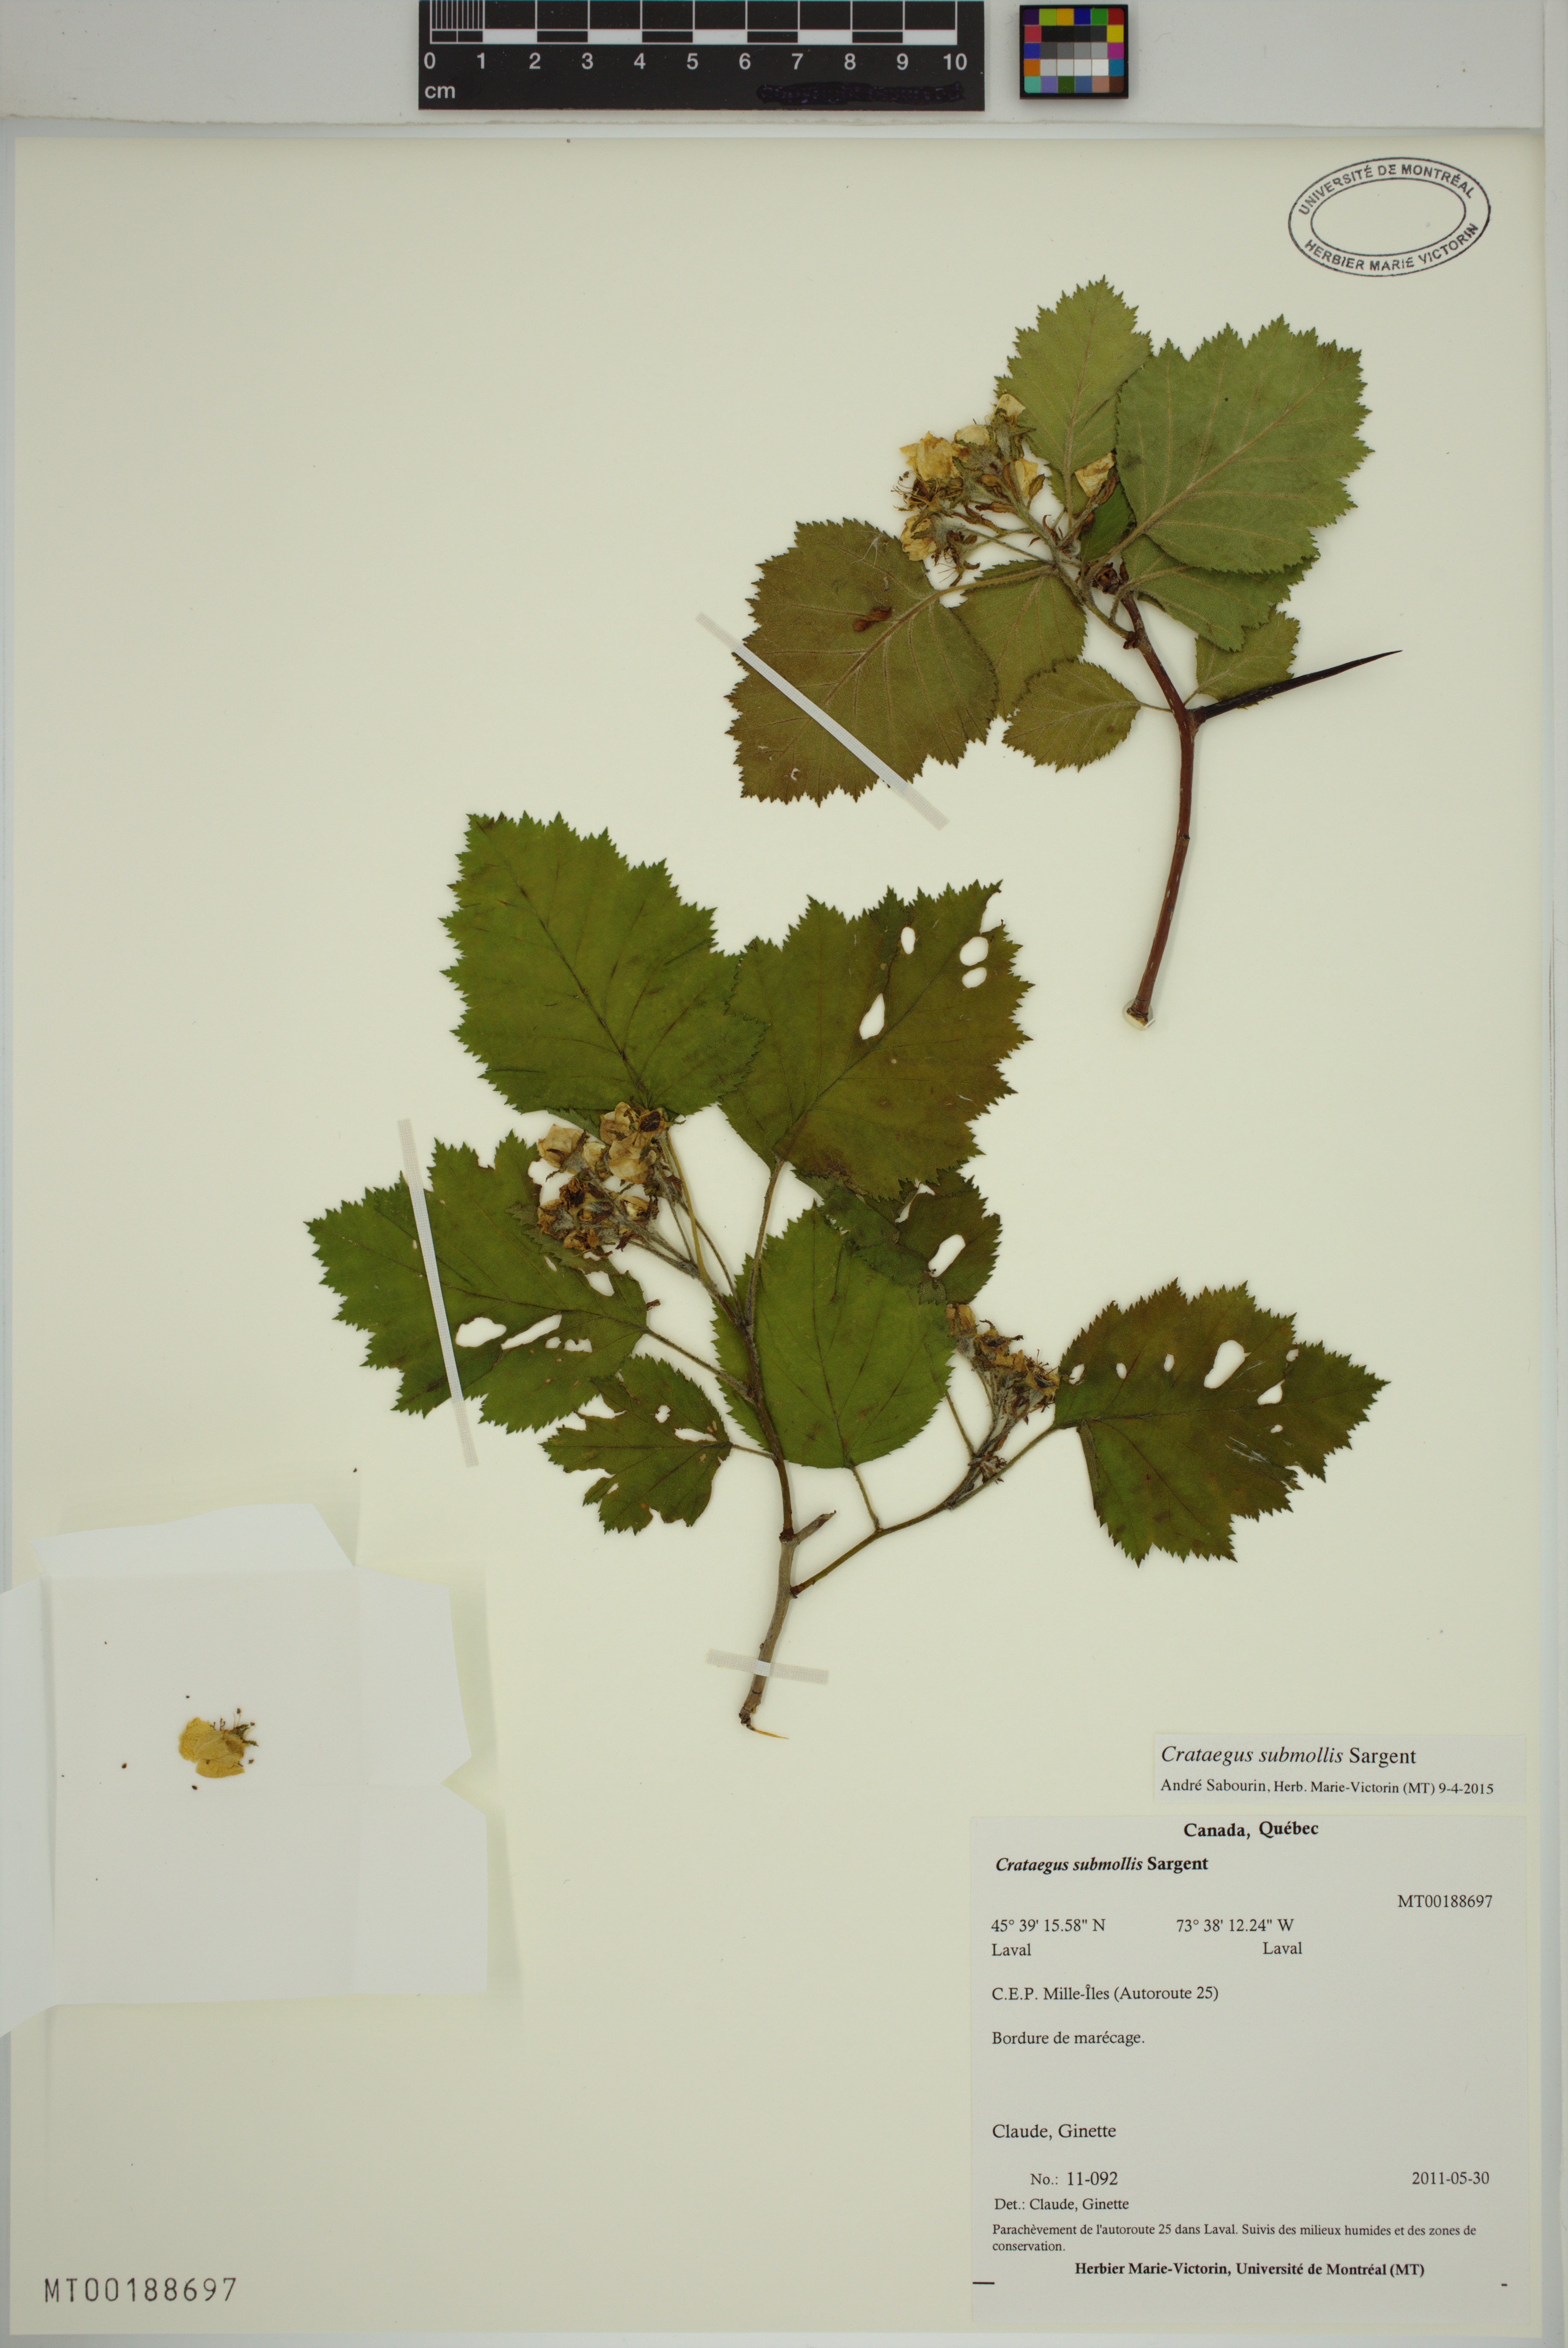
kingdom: Plantae
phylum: Tracheophyta
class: Magnoliopsida
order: Rosales
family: Rosaceae
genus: Crataegus
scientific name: Crataegus submollis
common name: Hairy cockspurthorn
